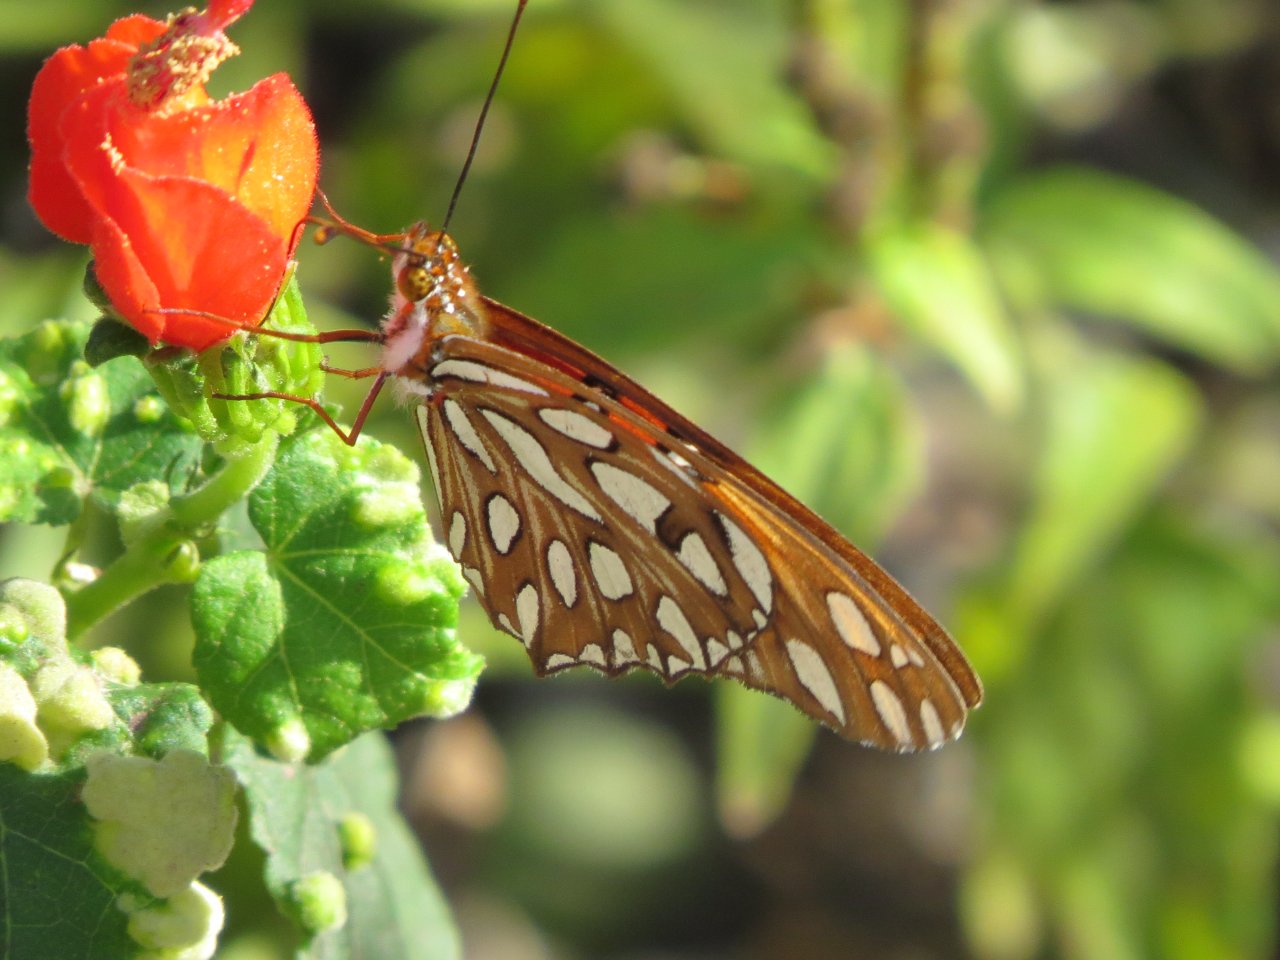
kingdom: Animalia
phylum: Arthropoda
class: Insecta
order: Lepidoptera
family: Nymphalidae
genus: Dione
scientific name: Dione vanillae
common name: Gulf Fritillary
